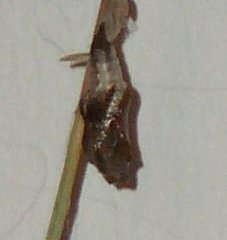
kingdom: Animalia
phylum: Arthropoda
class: Insecta
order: Lepidoptera
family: Nymphalidae
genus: Limenitis
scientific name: Limenitis archippus
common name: Viceroy
